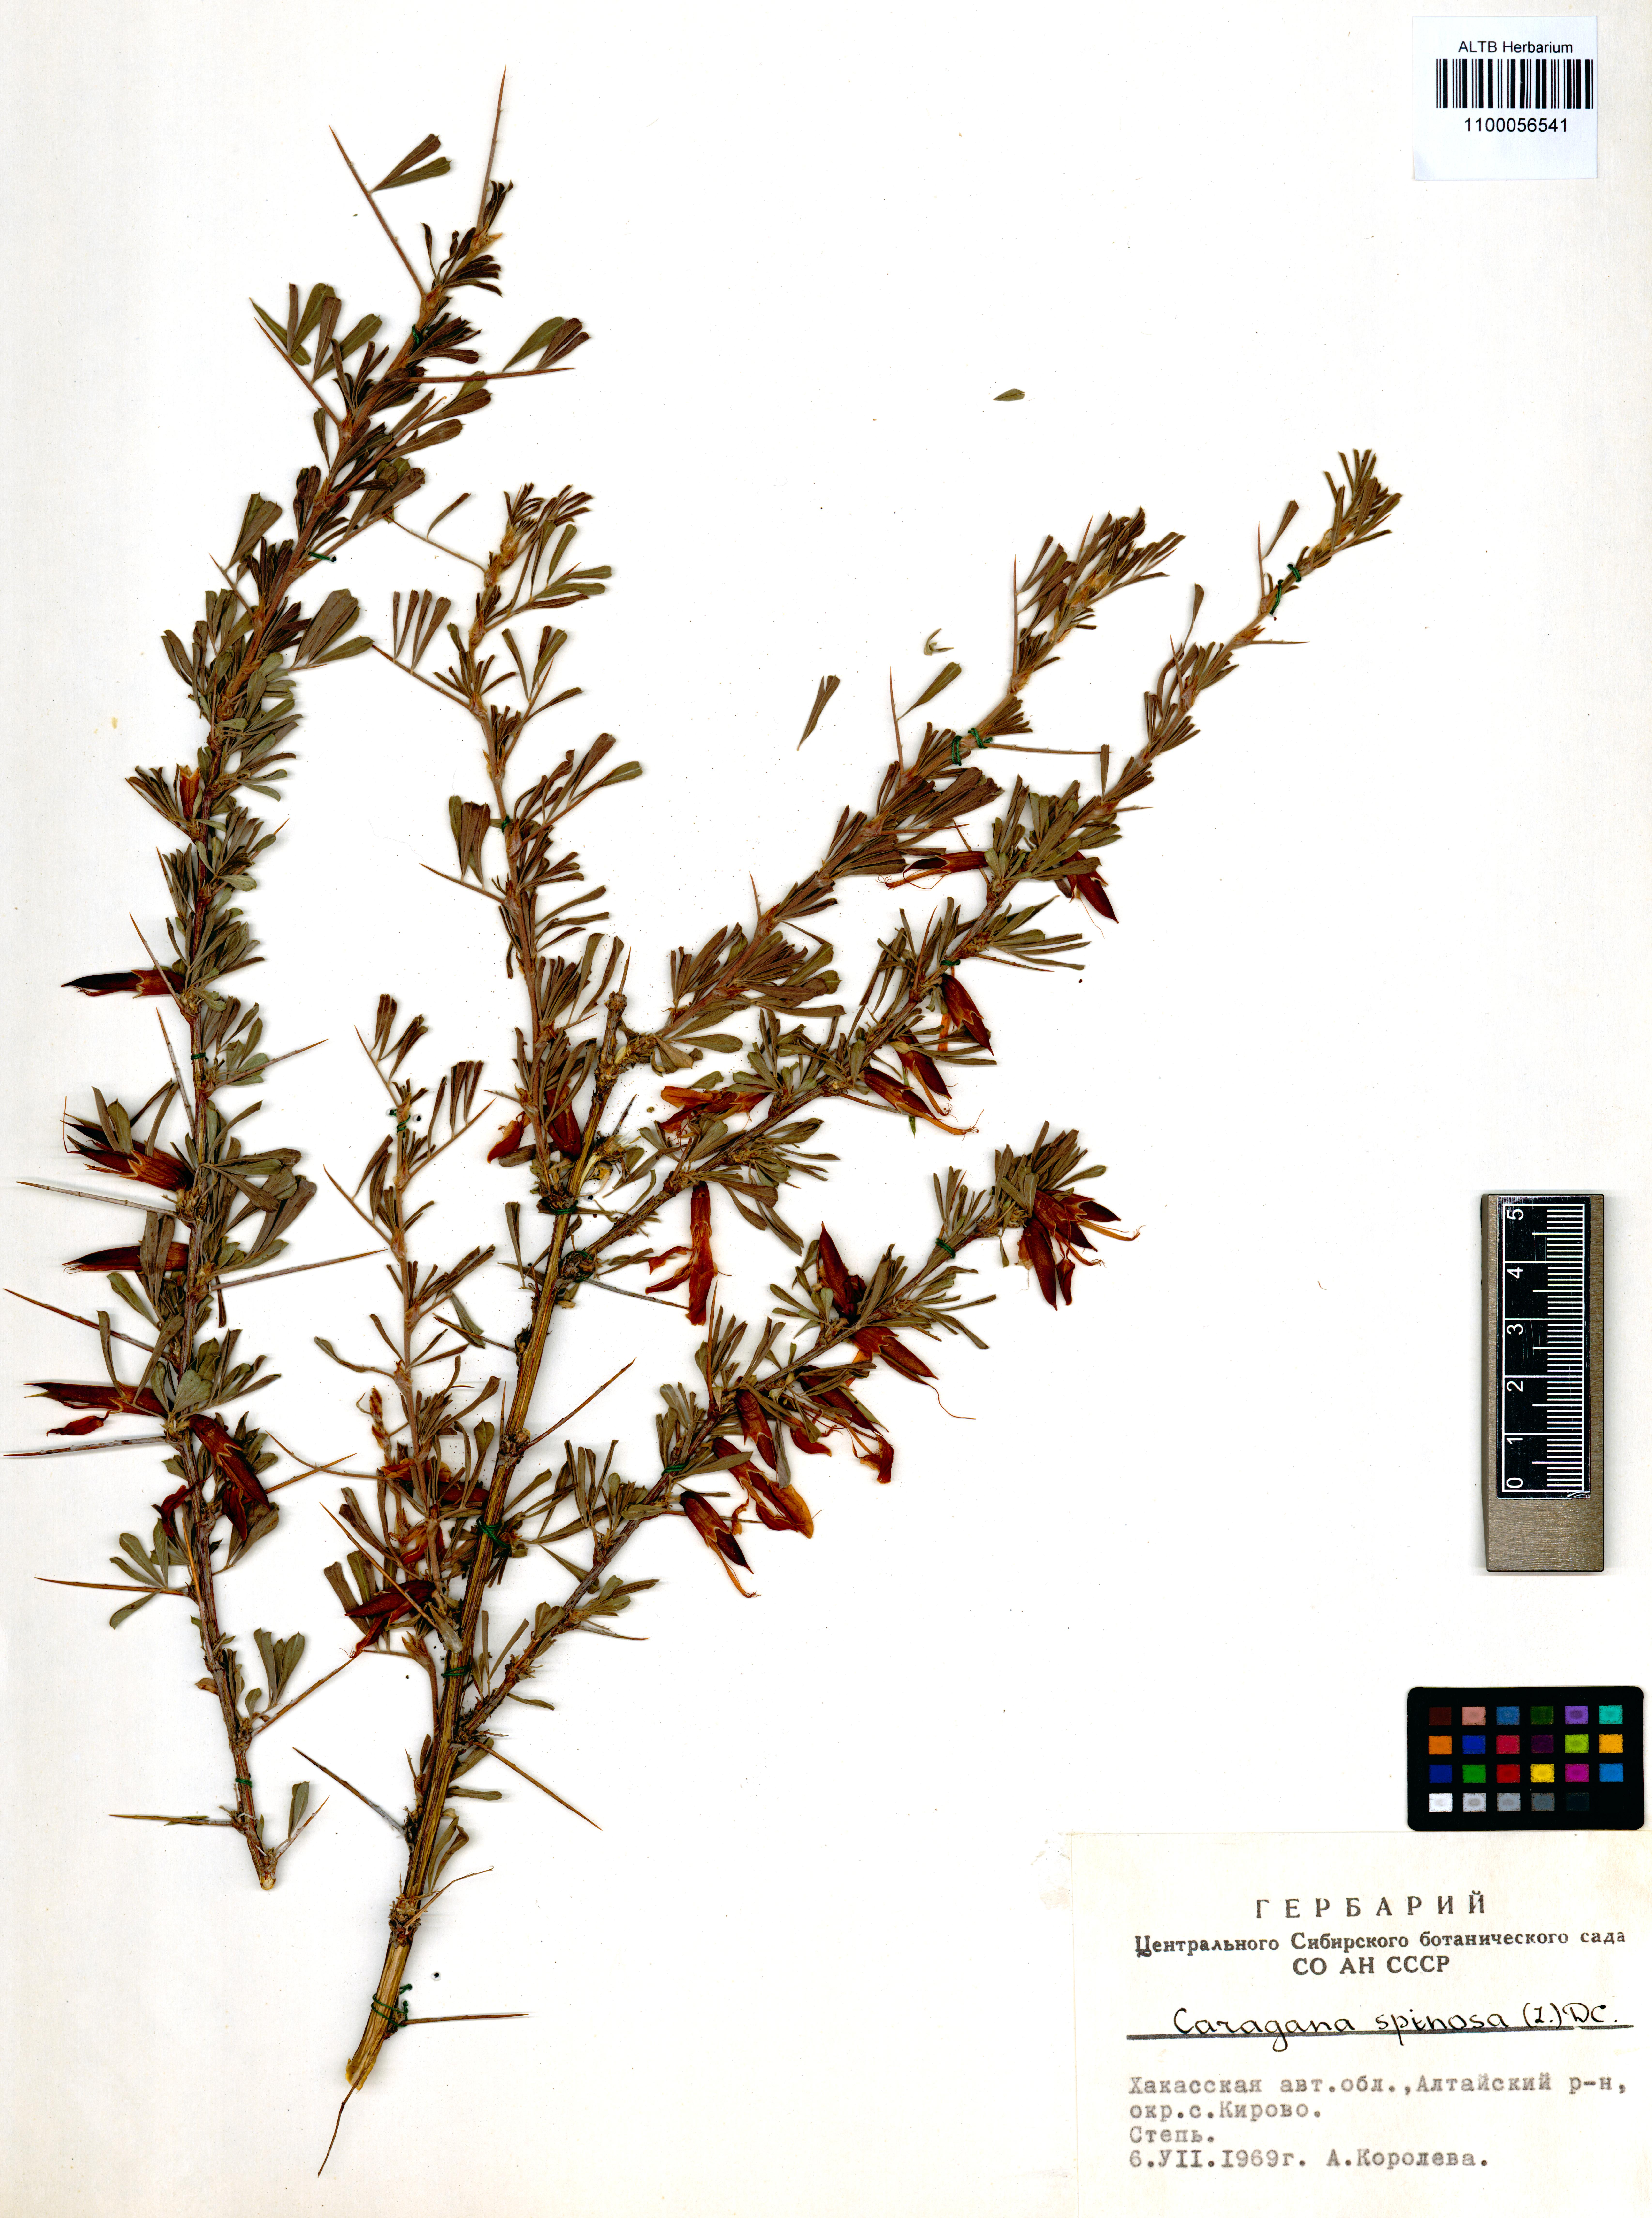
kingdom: Plantae
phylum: Tracheophyta
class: Magnoliopsida
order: Fabales
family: Fabaceae
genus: Caragana
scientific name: Caragana spinosa
